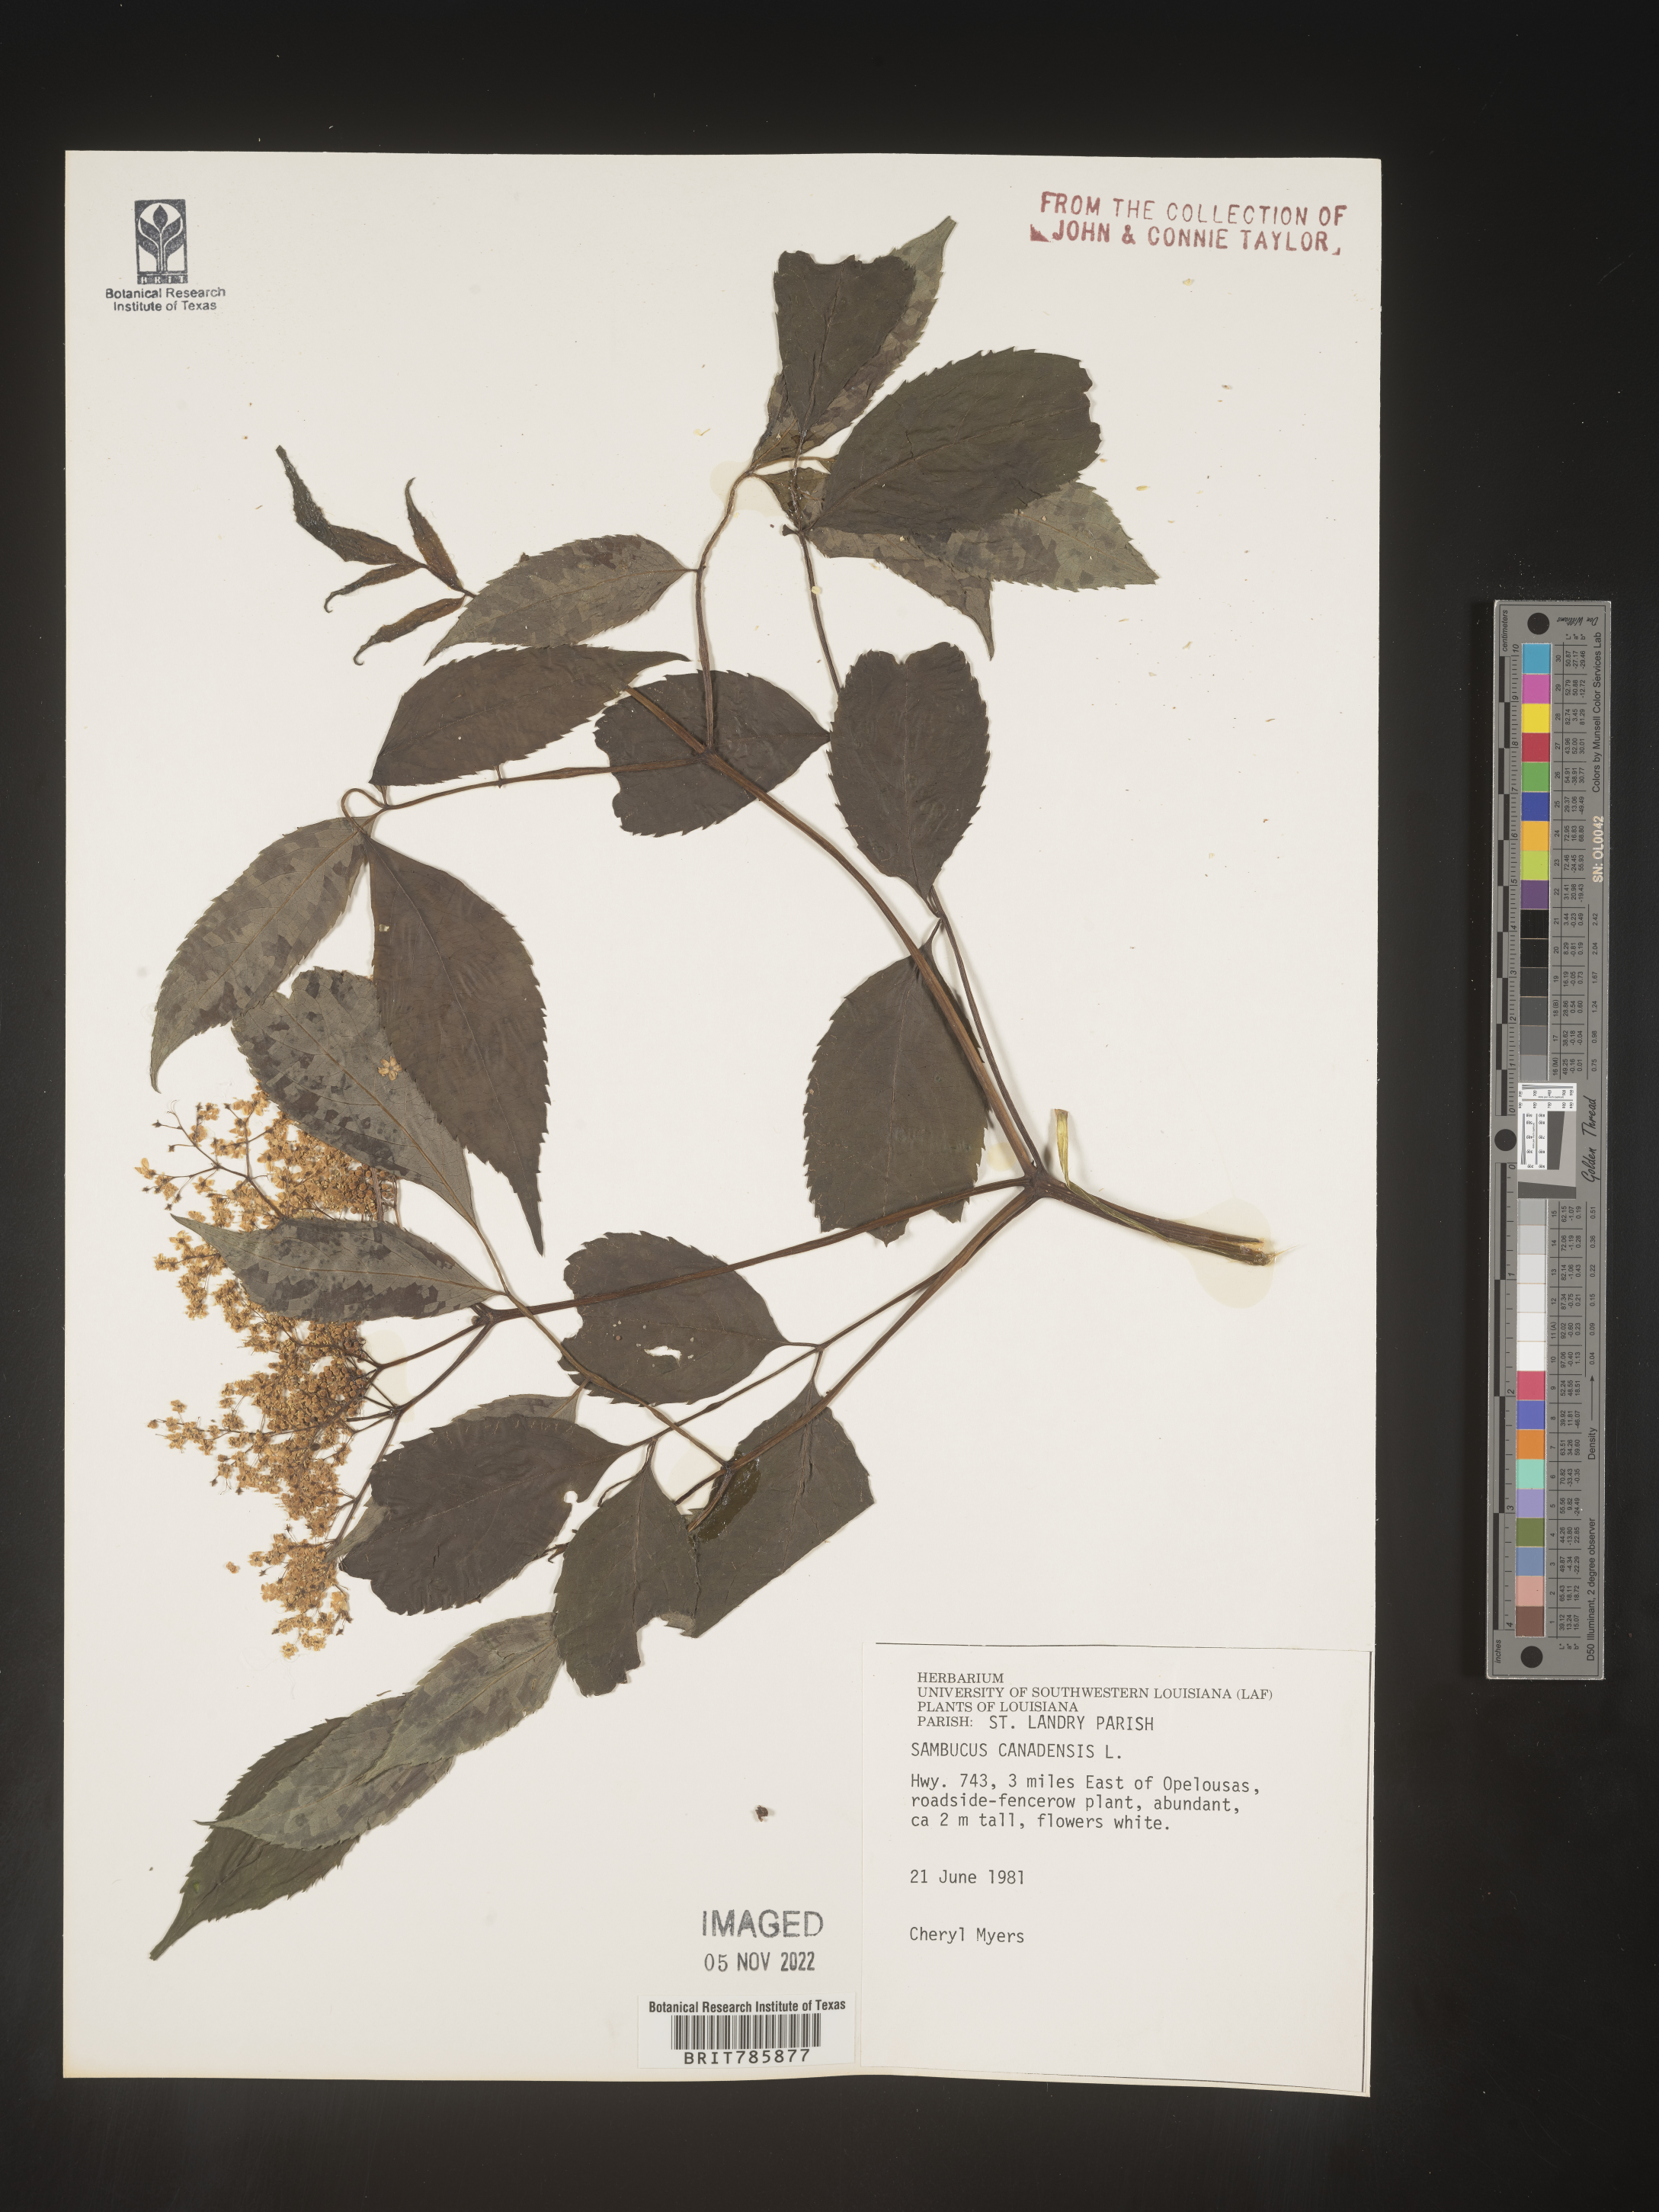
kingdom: Plantae
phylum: Tracheophyta
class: Magnoliopsida
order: Dipsacales
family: Viburnaceae
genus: Sambucus
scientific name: Sambucus nigra
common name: Elder
